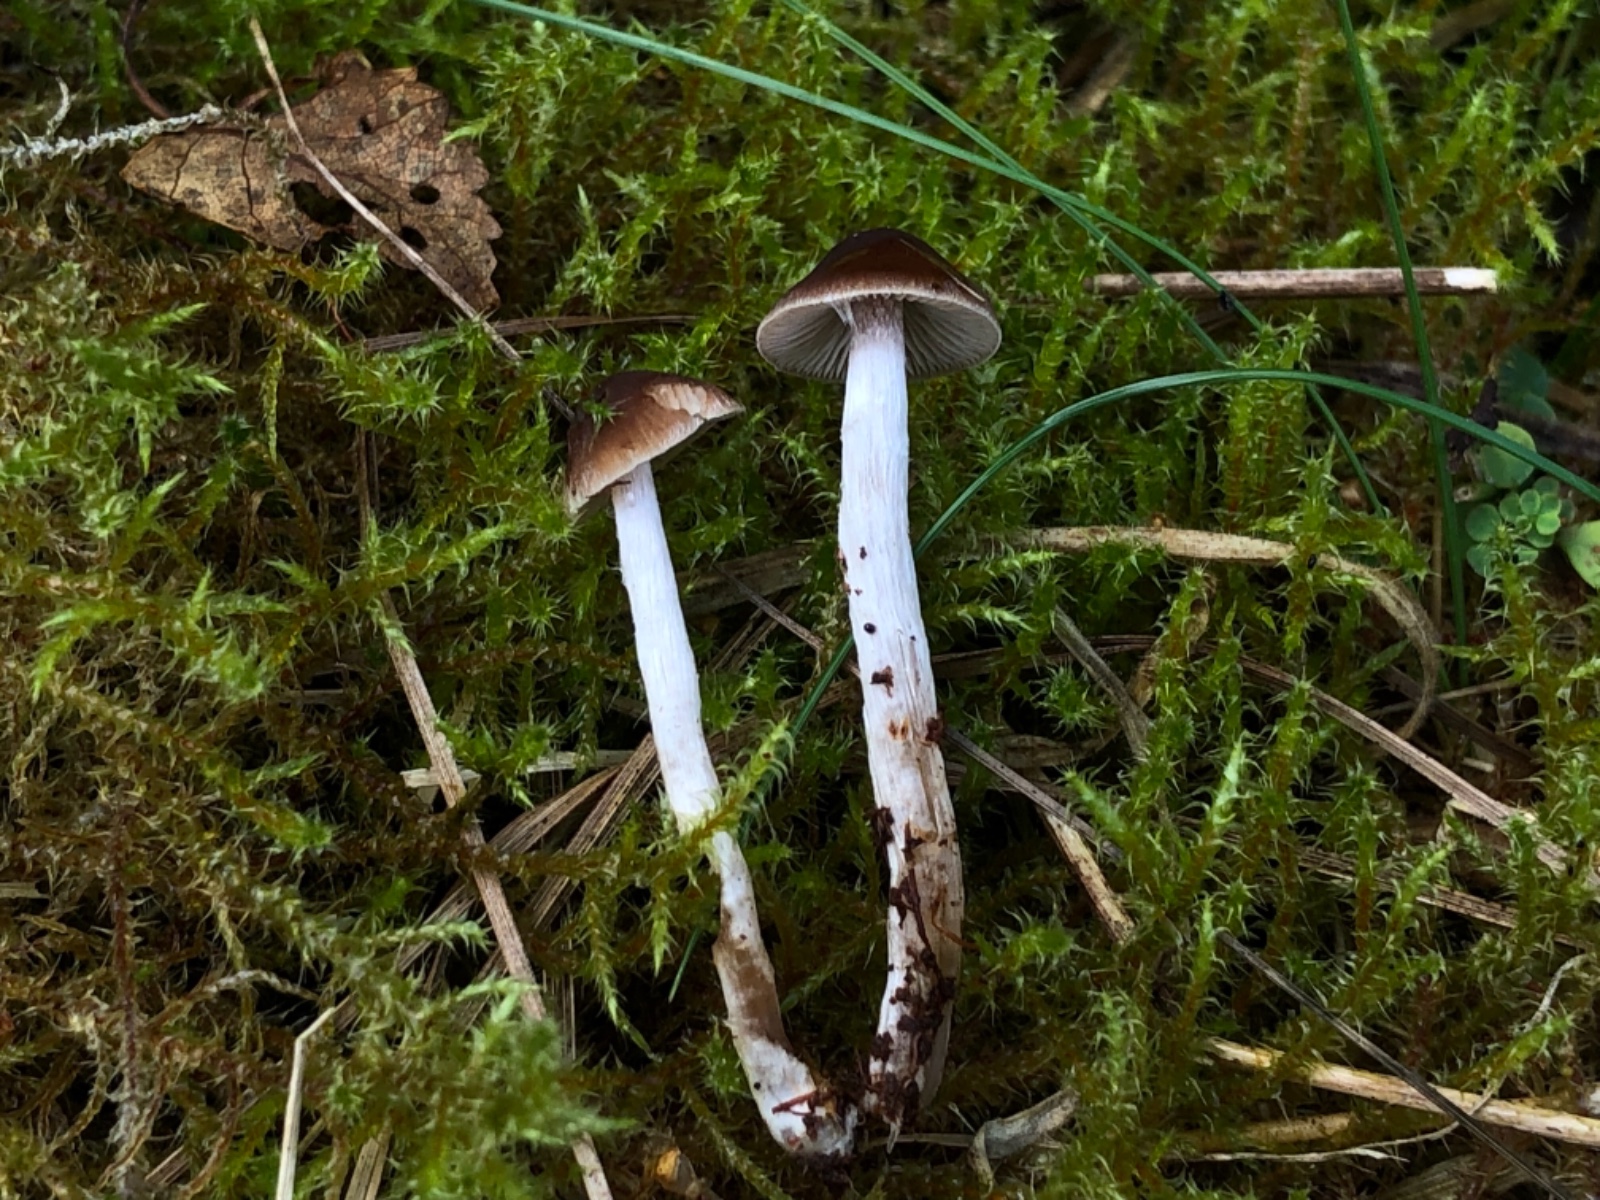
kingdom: Fungi
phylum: Basidiomycota
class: Agaricomycetes
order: Agaricales
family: Hymenogastraceae
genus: Naucoria
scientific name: Naucoria bohemica
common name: birke-knaphat
